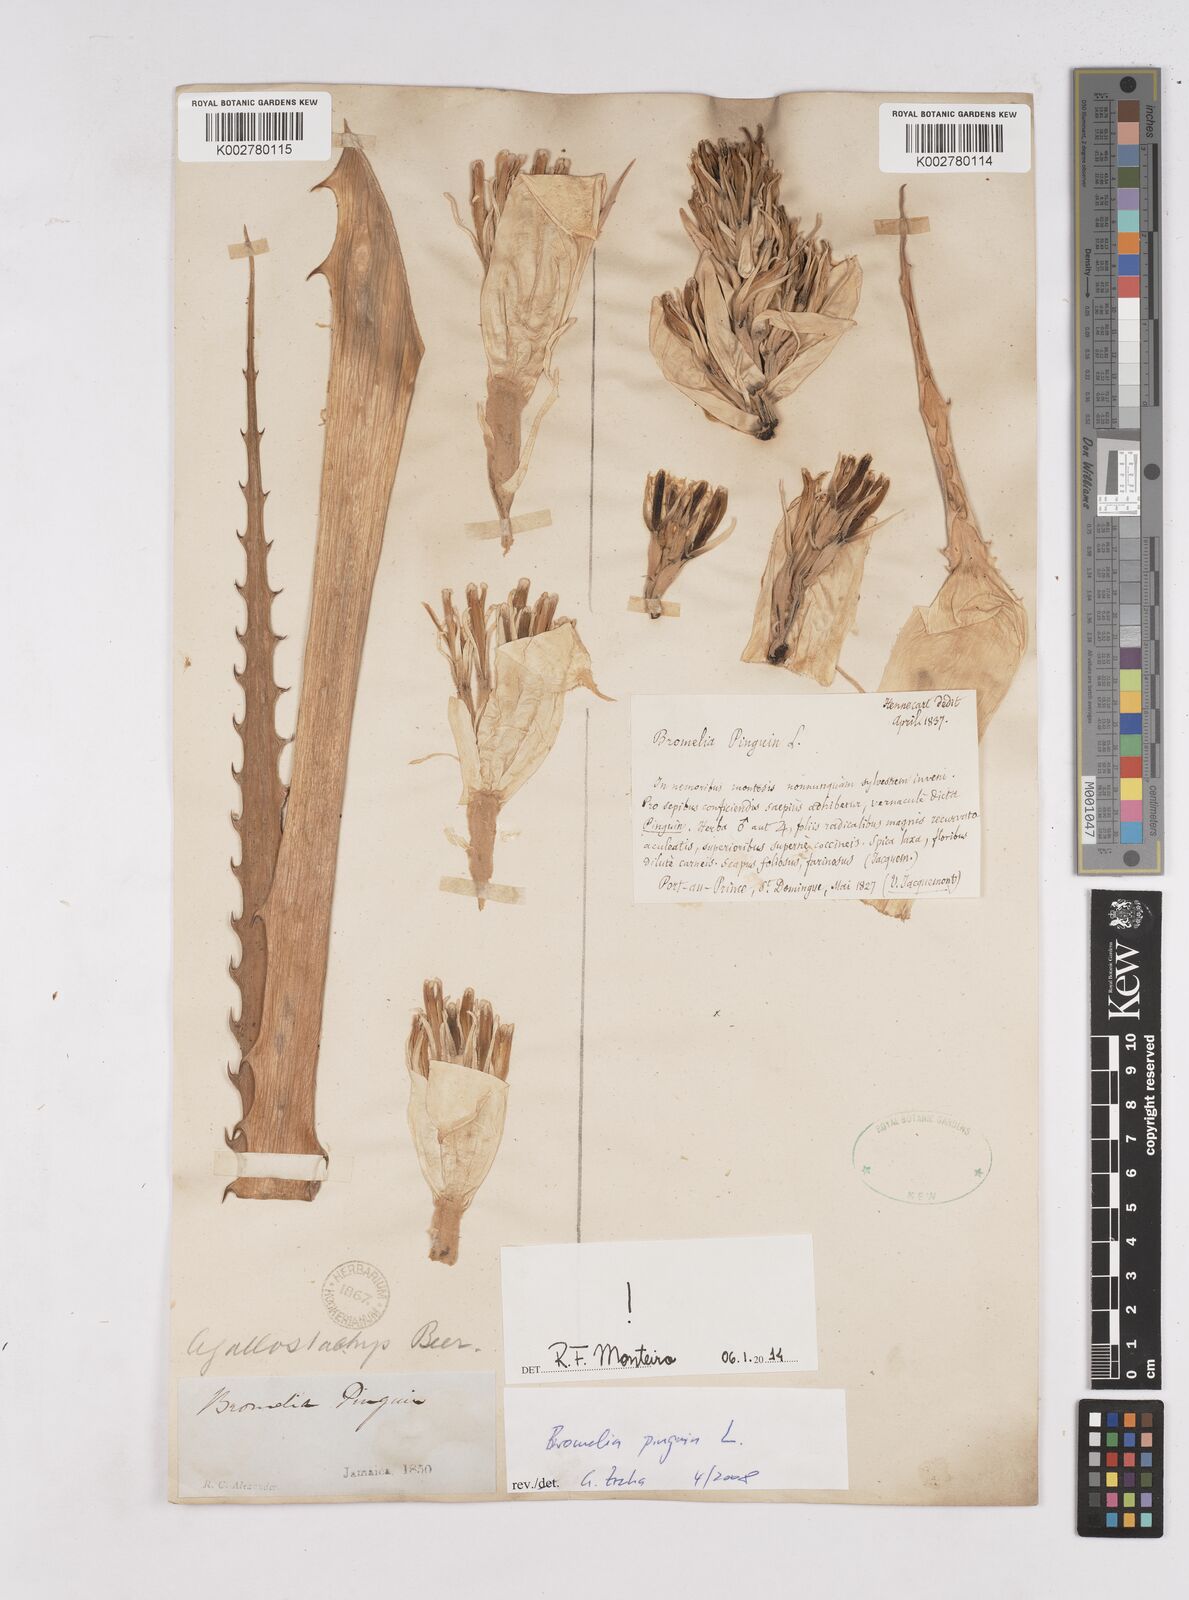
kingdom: Plantae
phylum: Tracheophyta
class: Liliopsida
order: Poales
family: Bromeliaceae
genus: Bromelia
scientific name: Bromelia pinguin
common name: Pinguin
